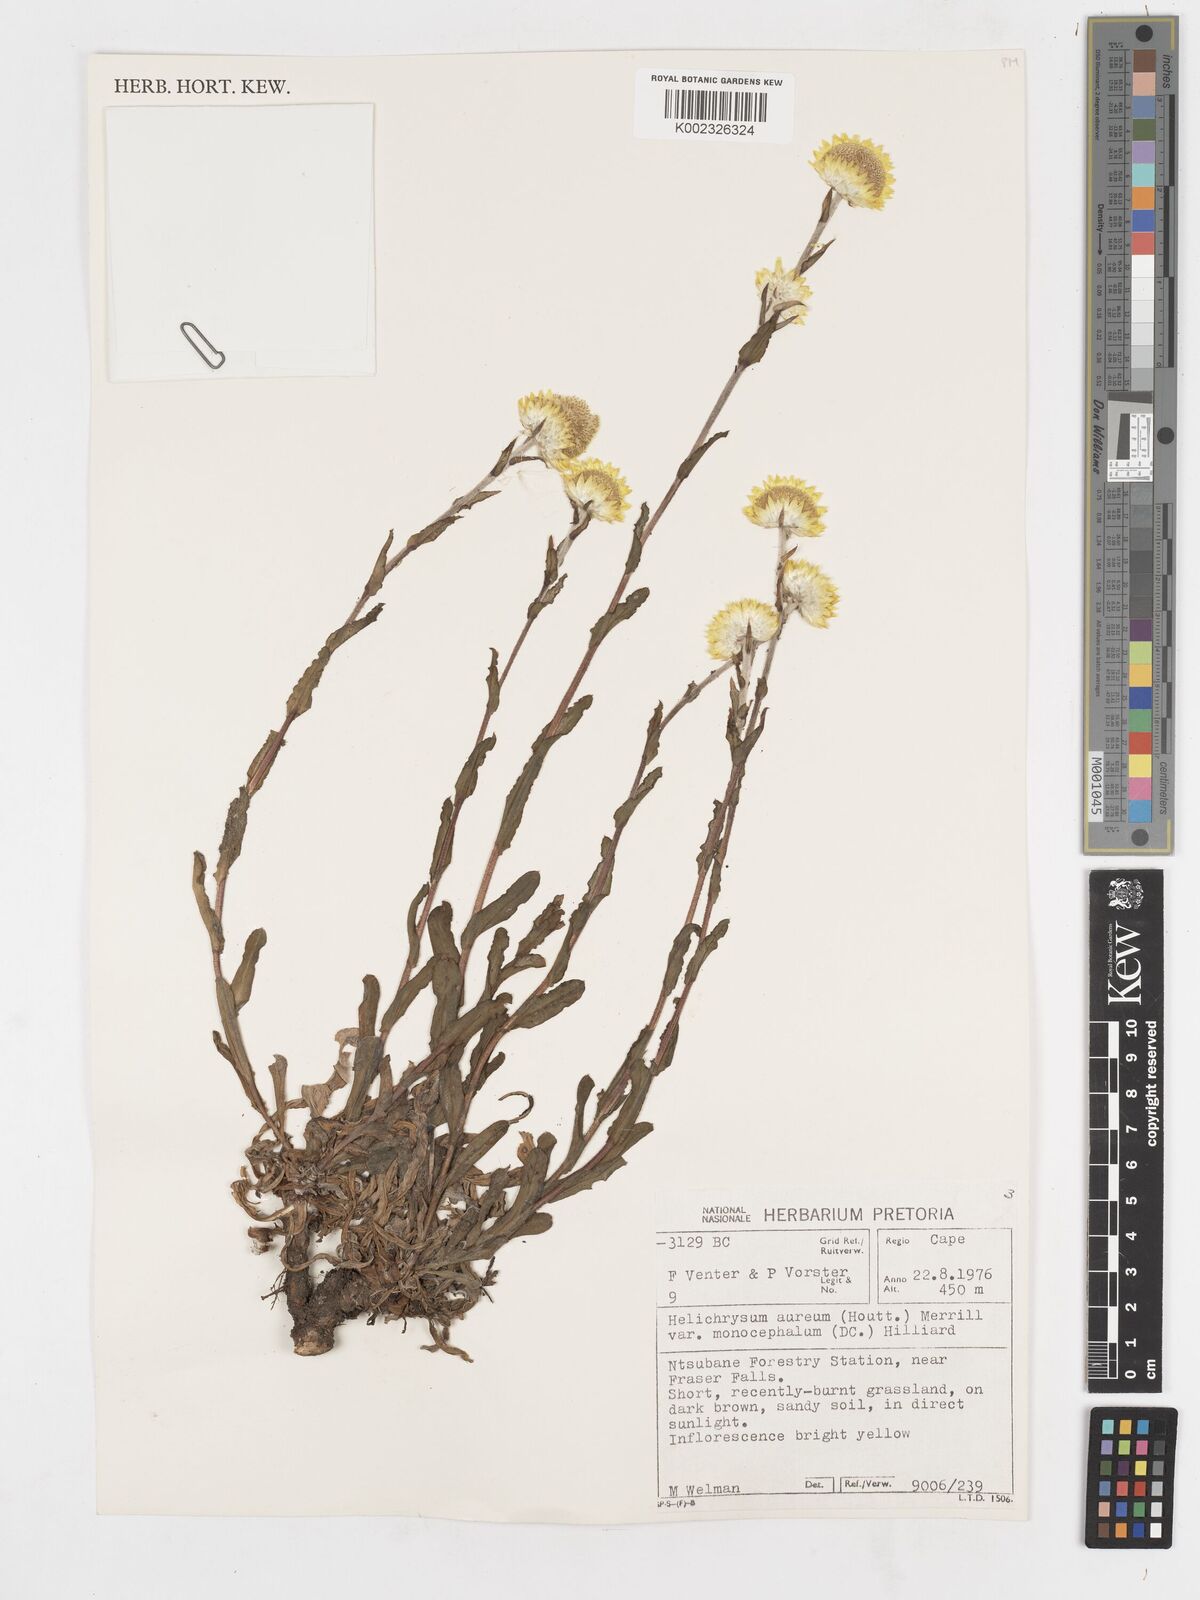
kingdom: Plantae
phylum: Tracheophyta
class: Magnoliopsida
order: Asterales
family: Asteraceae
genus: Helichrysum
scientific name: Helichrysum aureum
